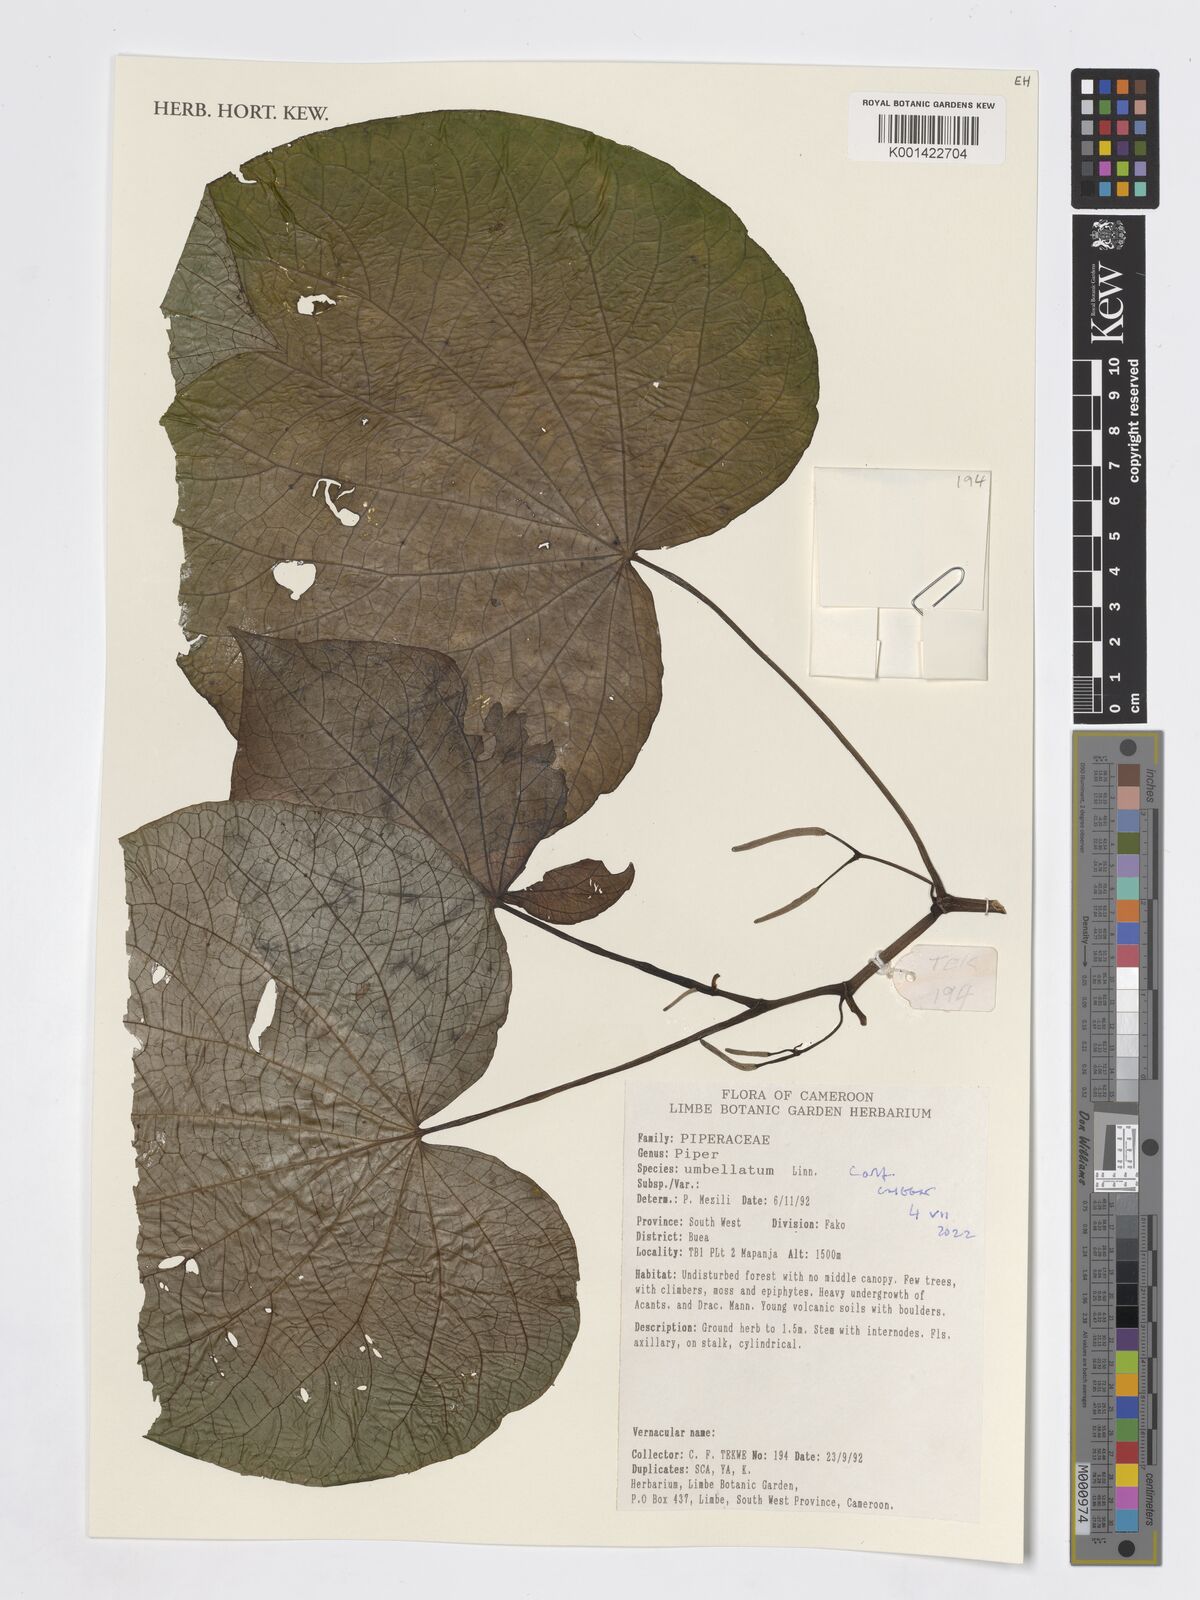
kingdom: Plantae
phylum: Tracheophyta
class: Magnoliopsida
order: Piperales
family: Piperaceae
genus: Piper
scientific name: Piper umbellatum
